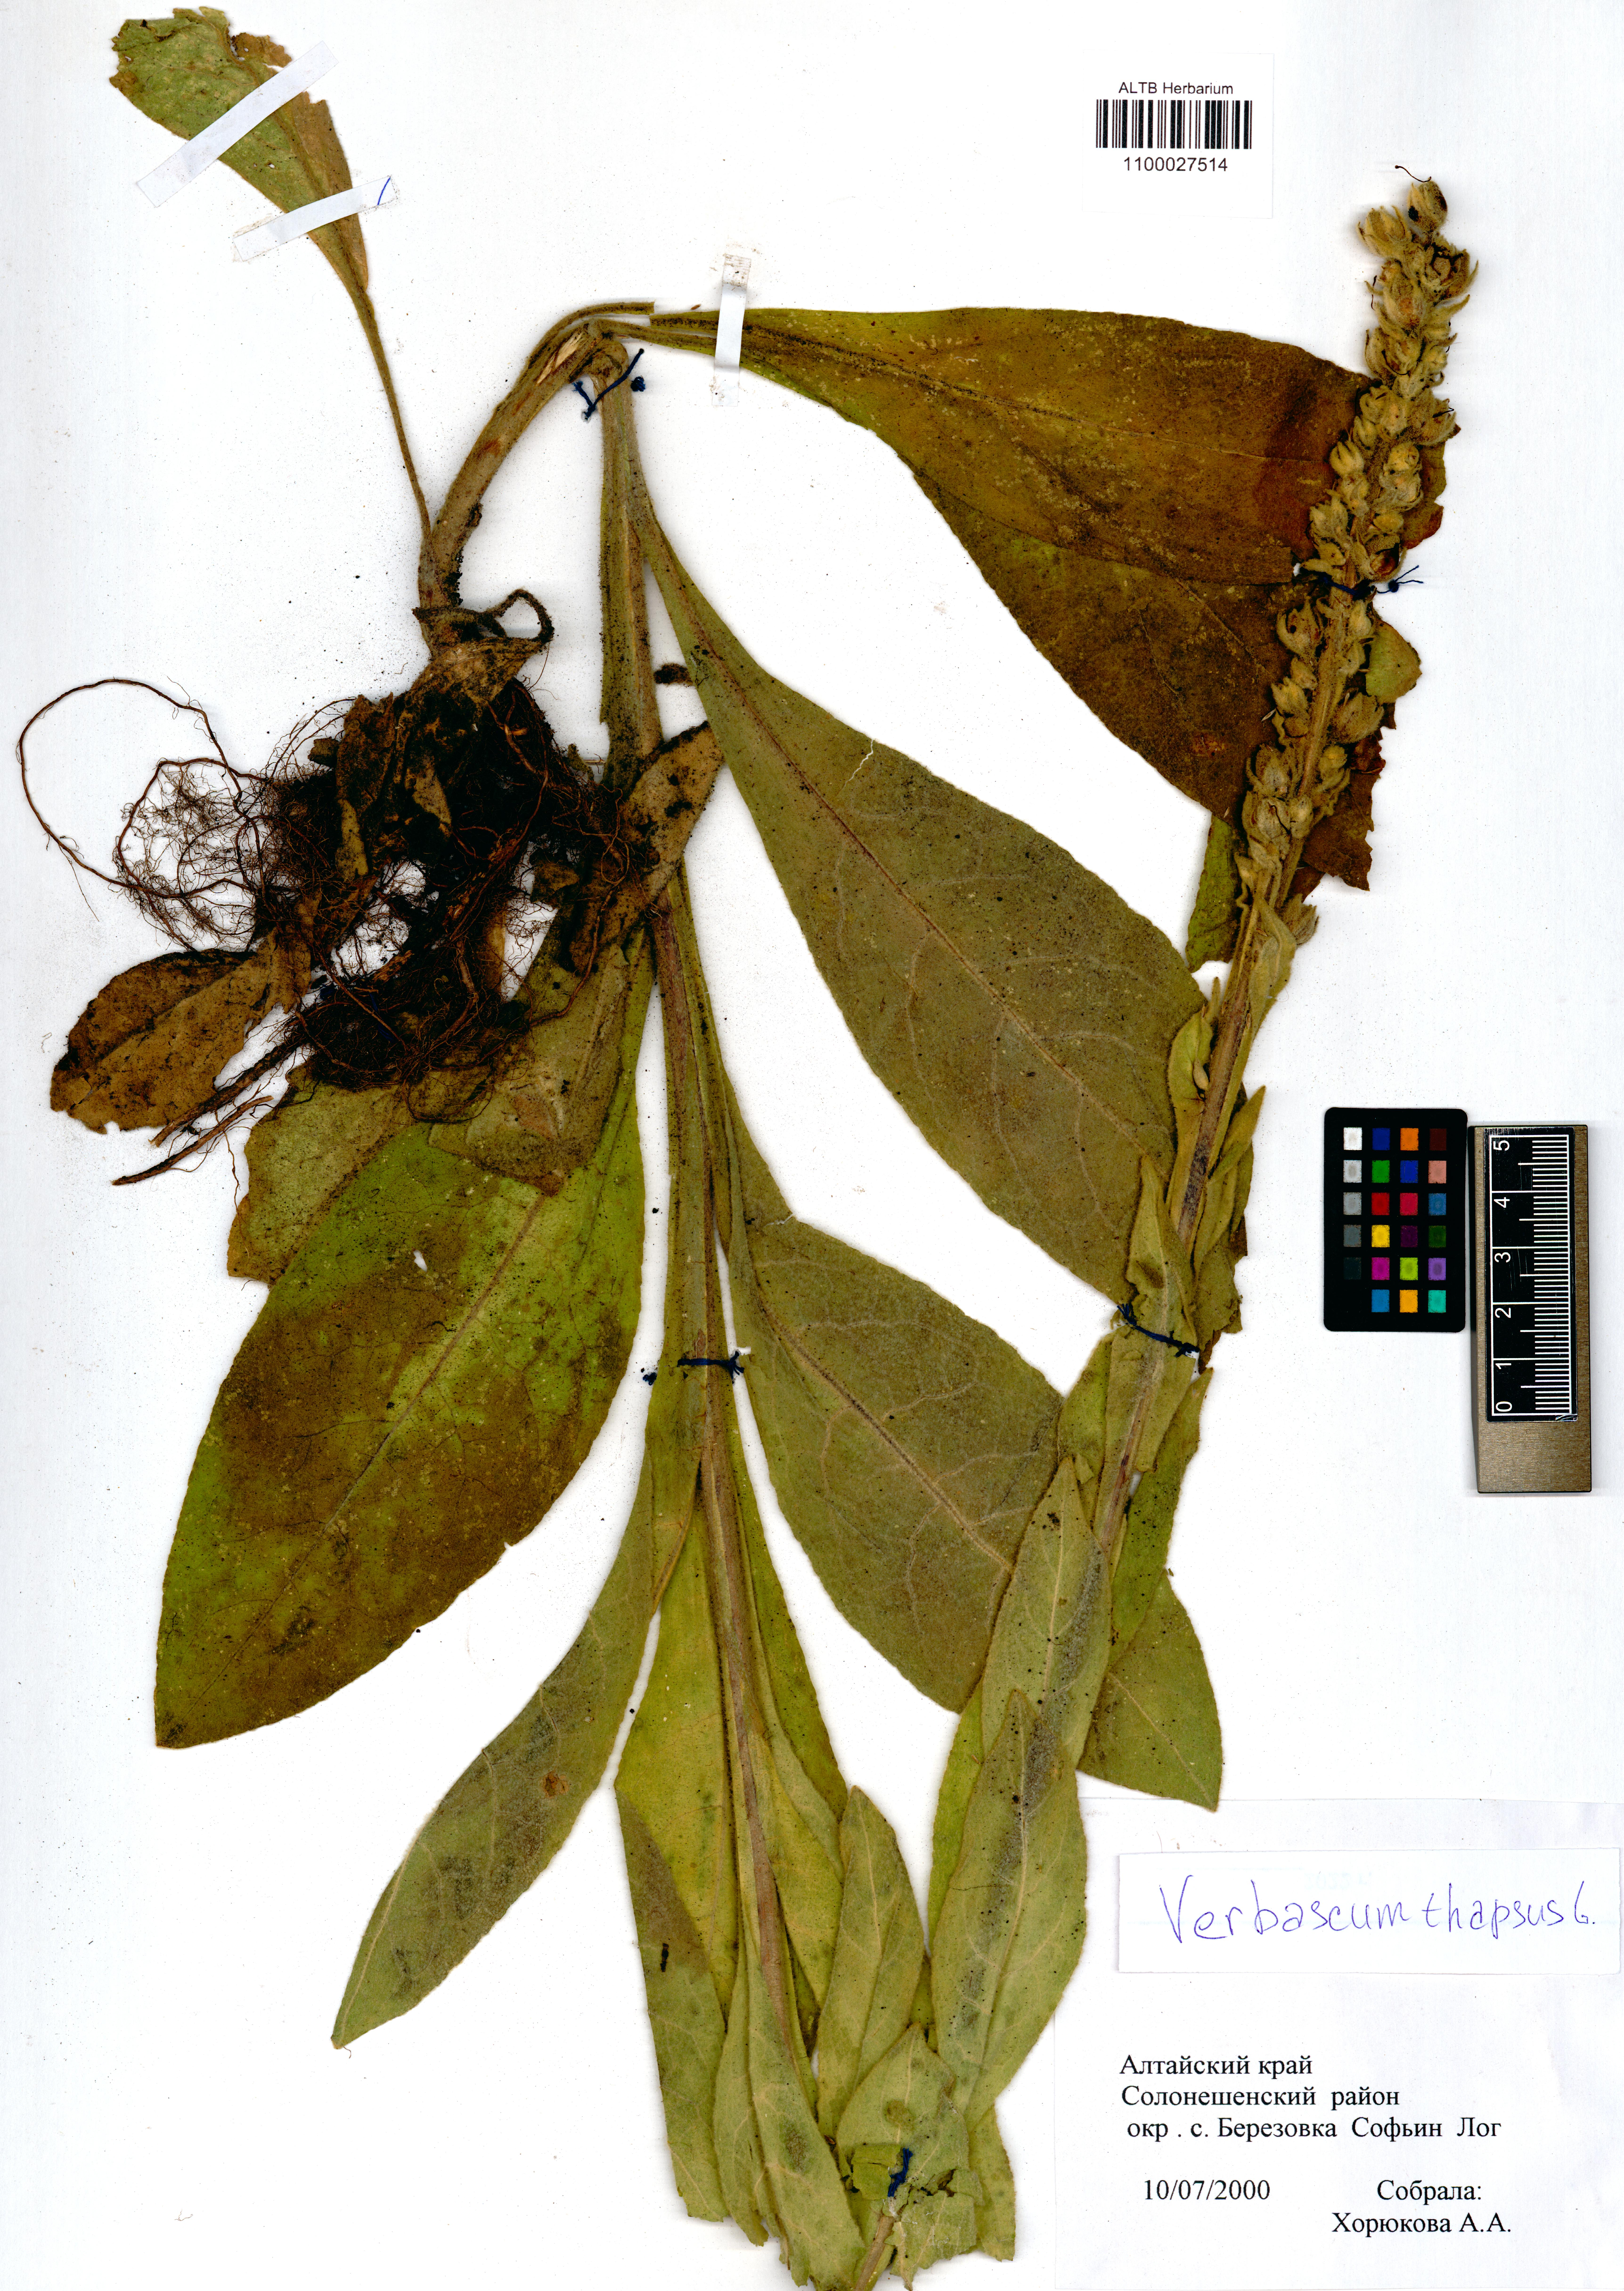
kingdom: Plantae
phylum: Tracheophyta
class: Magnoliopsida
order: Lamiales
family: Scrophulariaceae
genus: Verbascum
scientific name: Verbascum thapsus
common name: Common mullein
